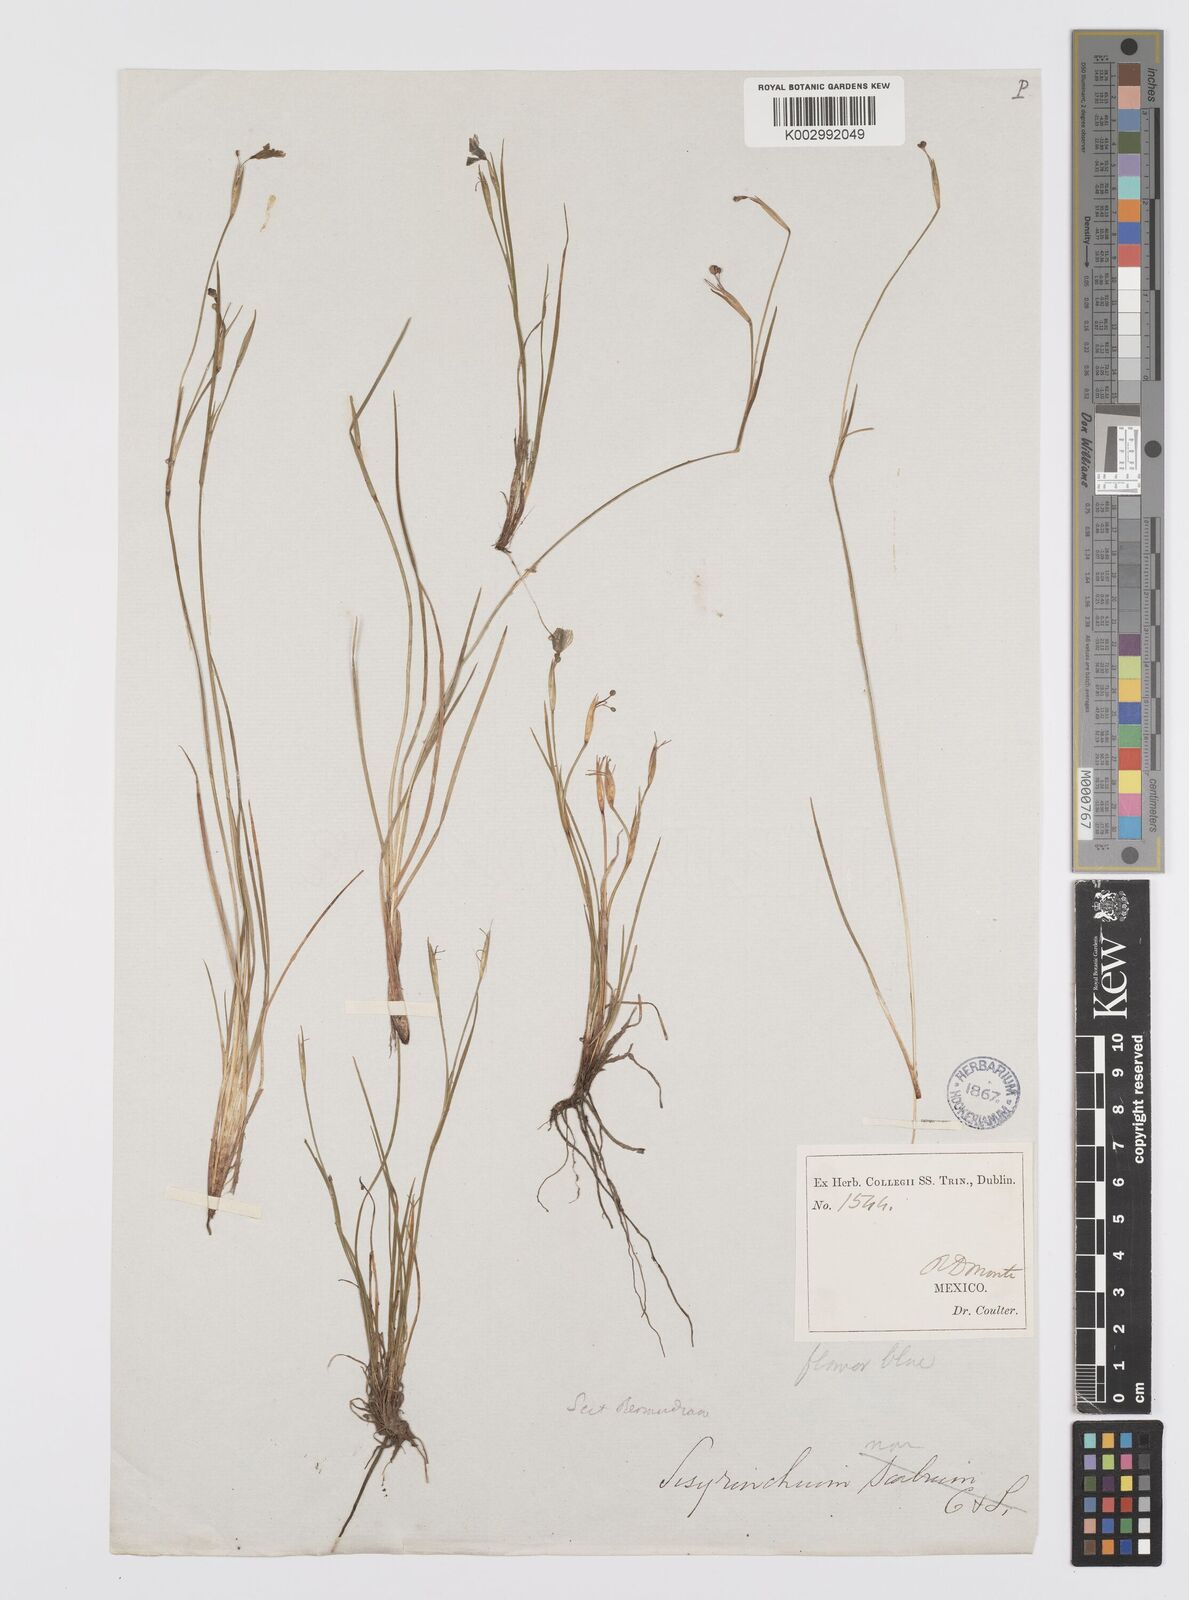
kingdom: Plantae
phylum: Tracheophyta
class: Liliopsida
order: Asparagales
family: Iridaceae
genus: Sisyrinchium
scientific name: Sisyrinchium scabrum
